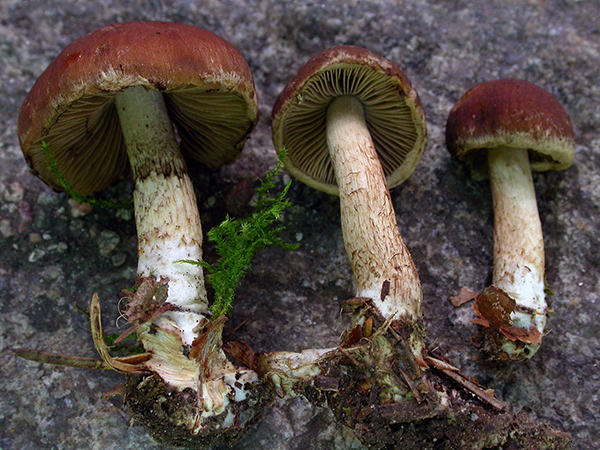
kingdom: Fungi
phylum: Basidiomycota
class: Agaricomycetes
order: Agaricales
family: Psathyrellaceae
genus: Psathyrella
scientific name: Psathyrella pertinax
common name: gran-mørkhat
